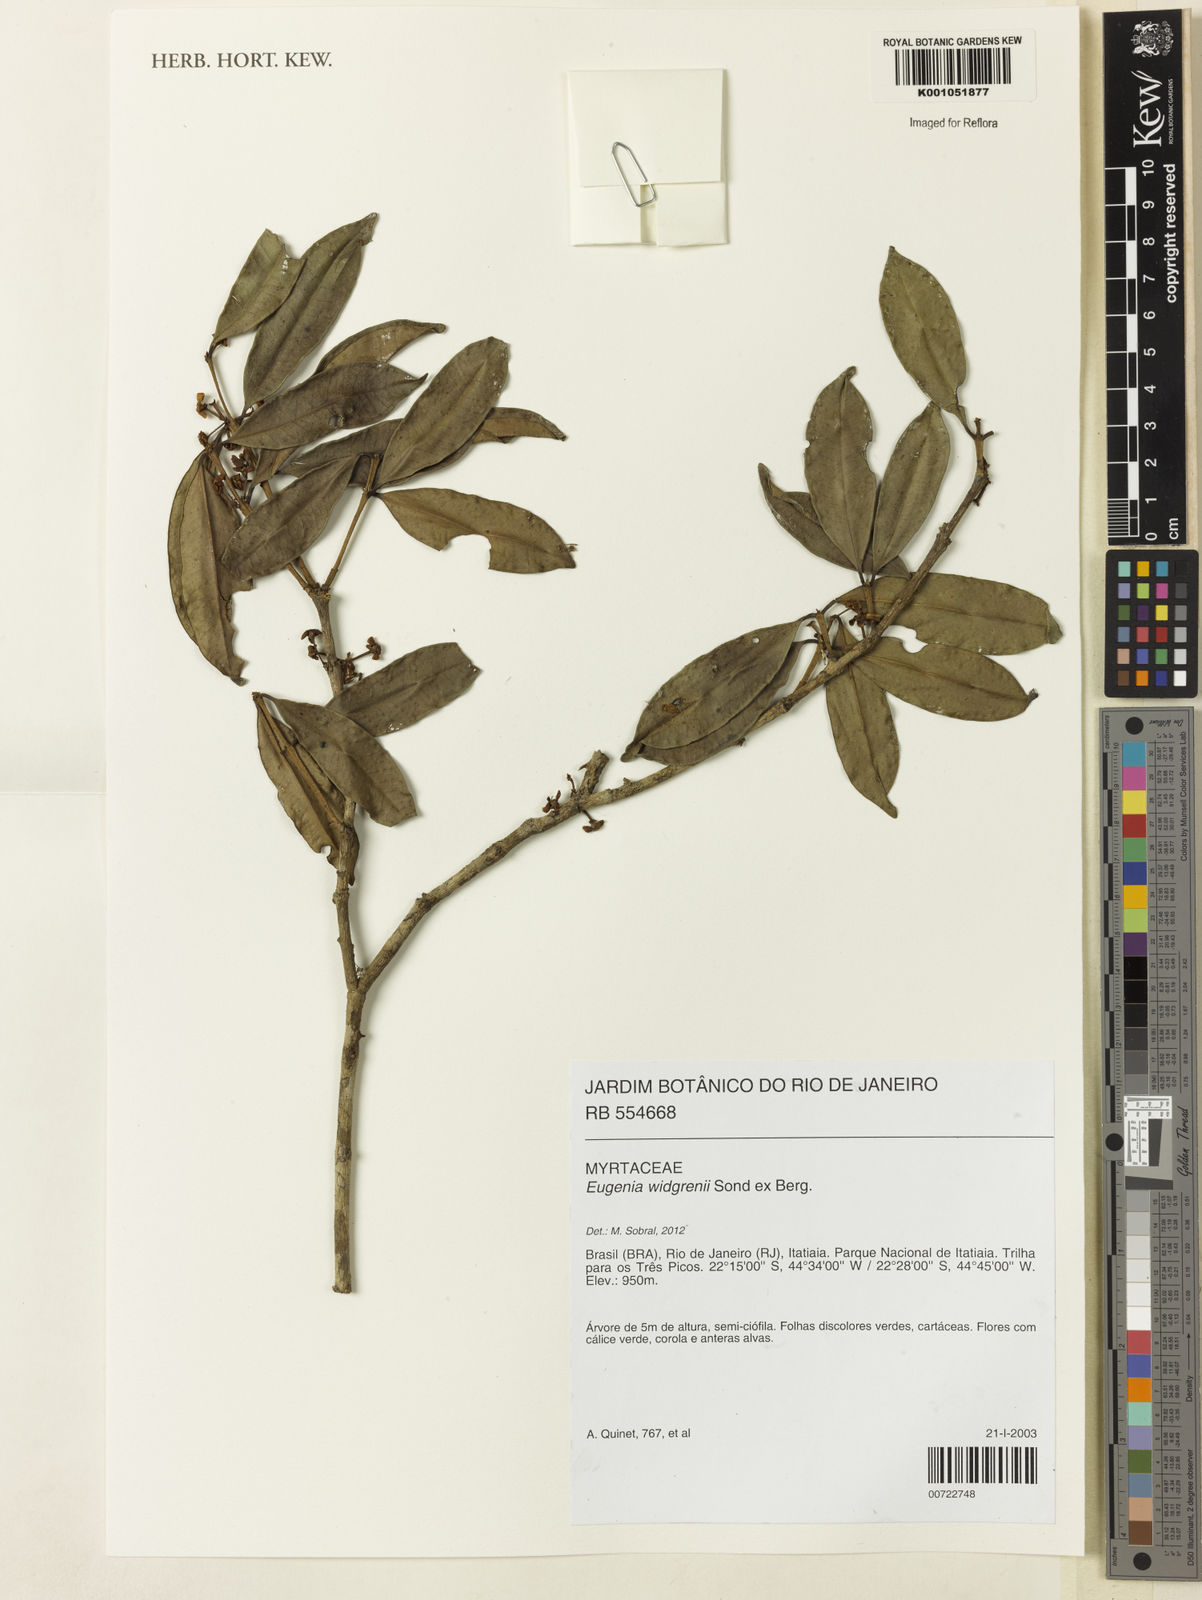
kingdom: Plantae
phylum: Tracheophyta
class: Magnoliopsida
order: Myrtales
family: Myrtaceae
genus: Eugenia
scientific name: Eugenia widgrenii
